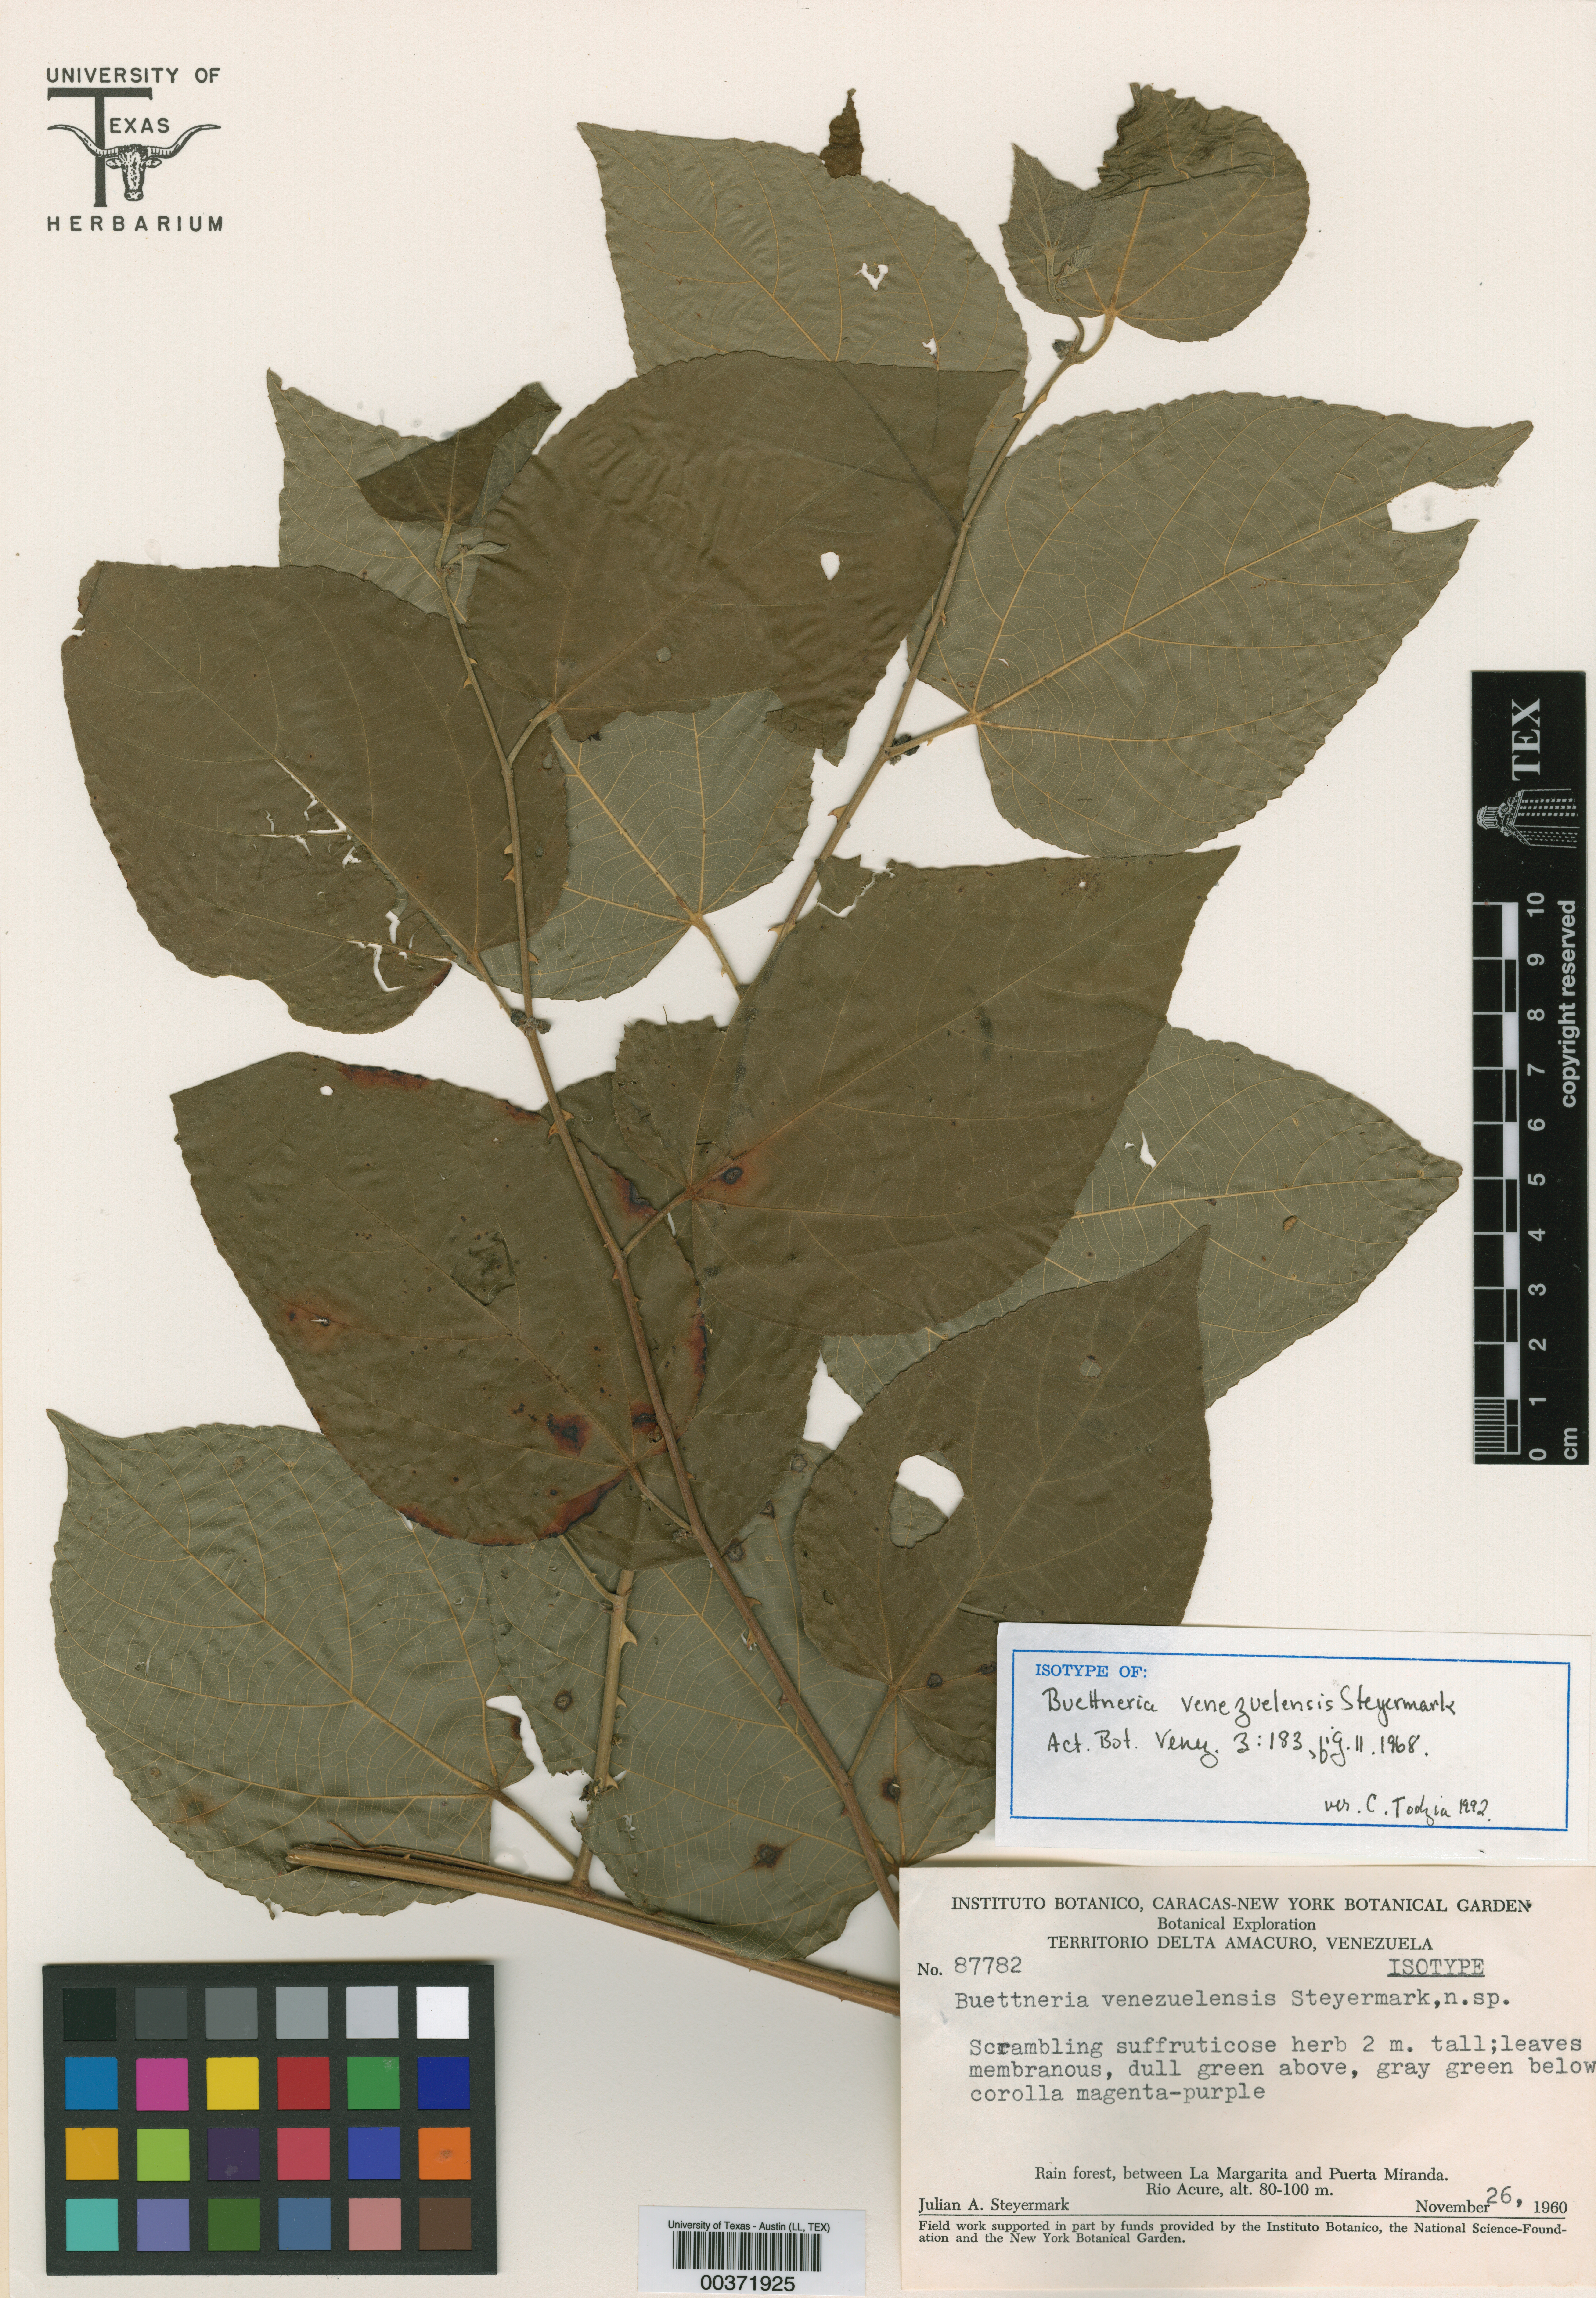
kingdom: Plantae
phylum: Tracheophyta
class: Magnoliopsida
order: Malvales
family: Malvaceae
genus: Byttneria
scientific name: Byttneria divaricata
